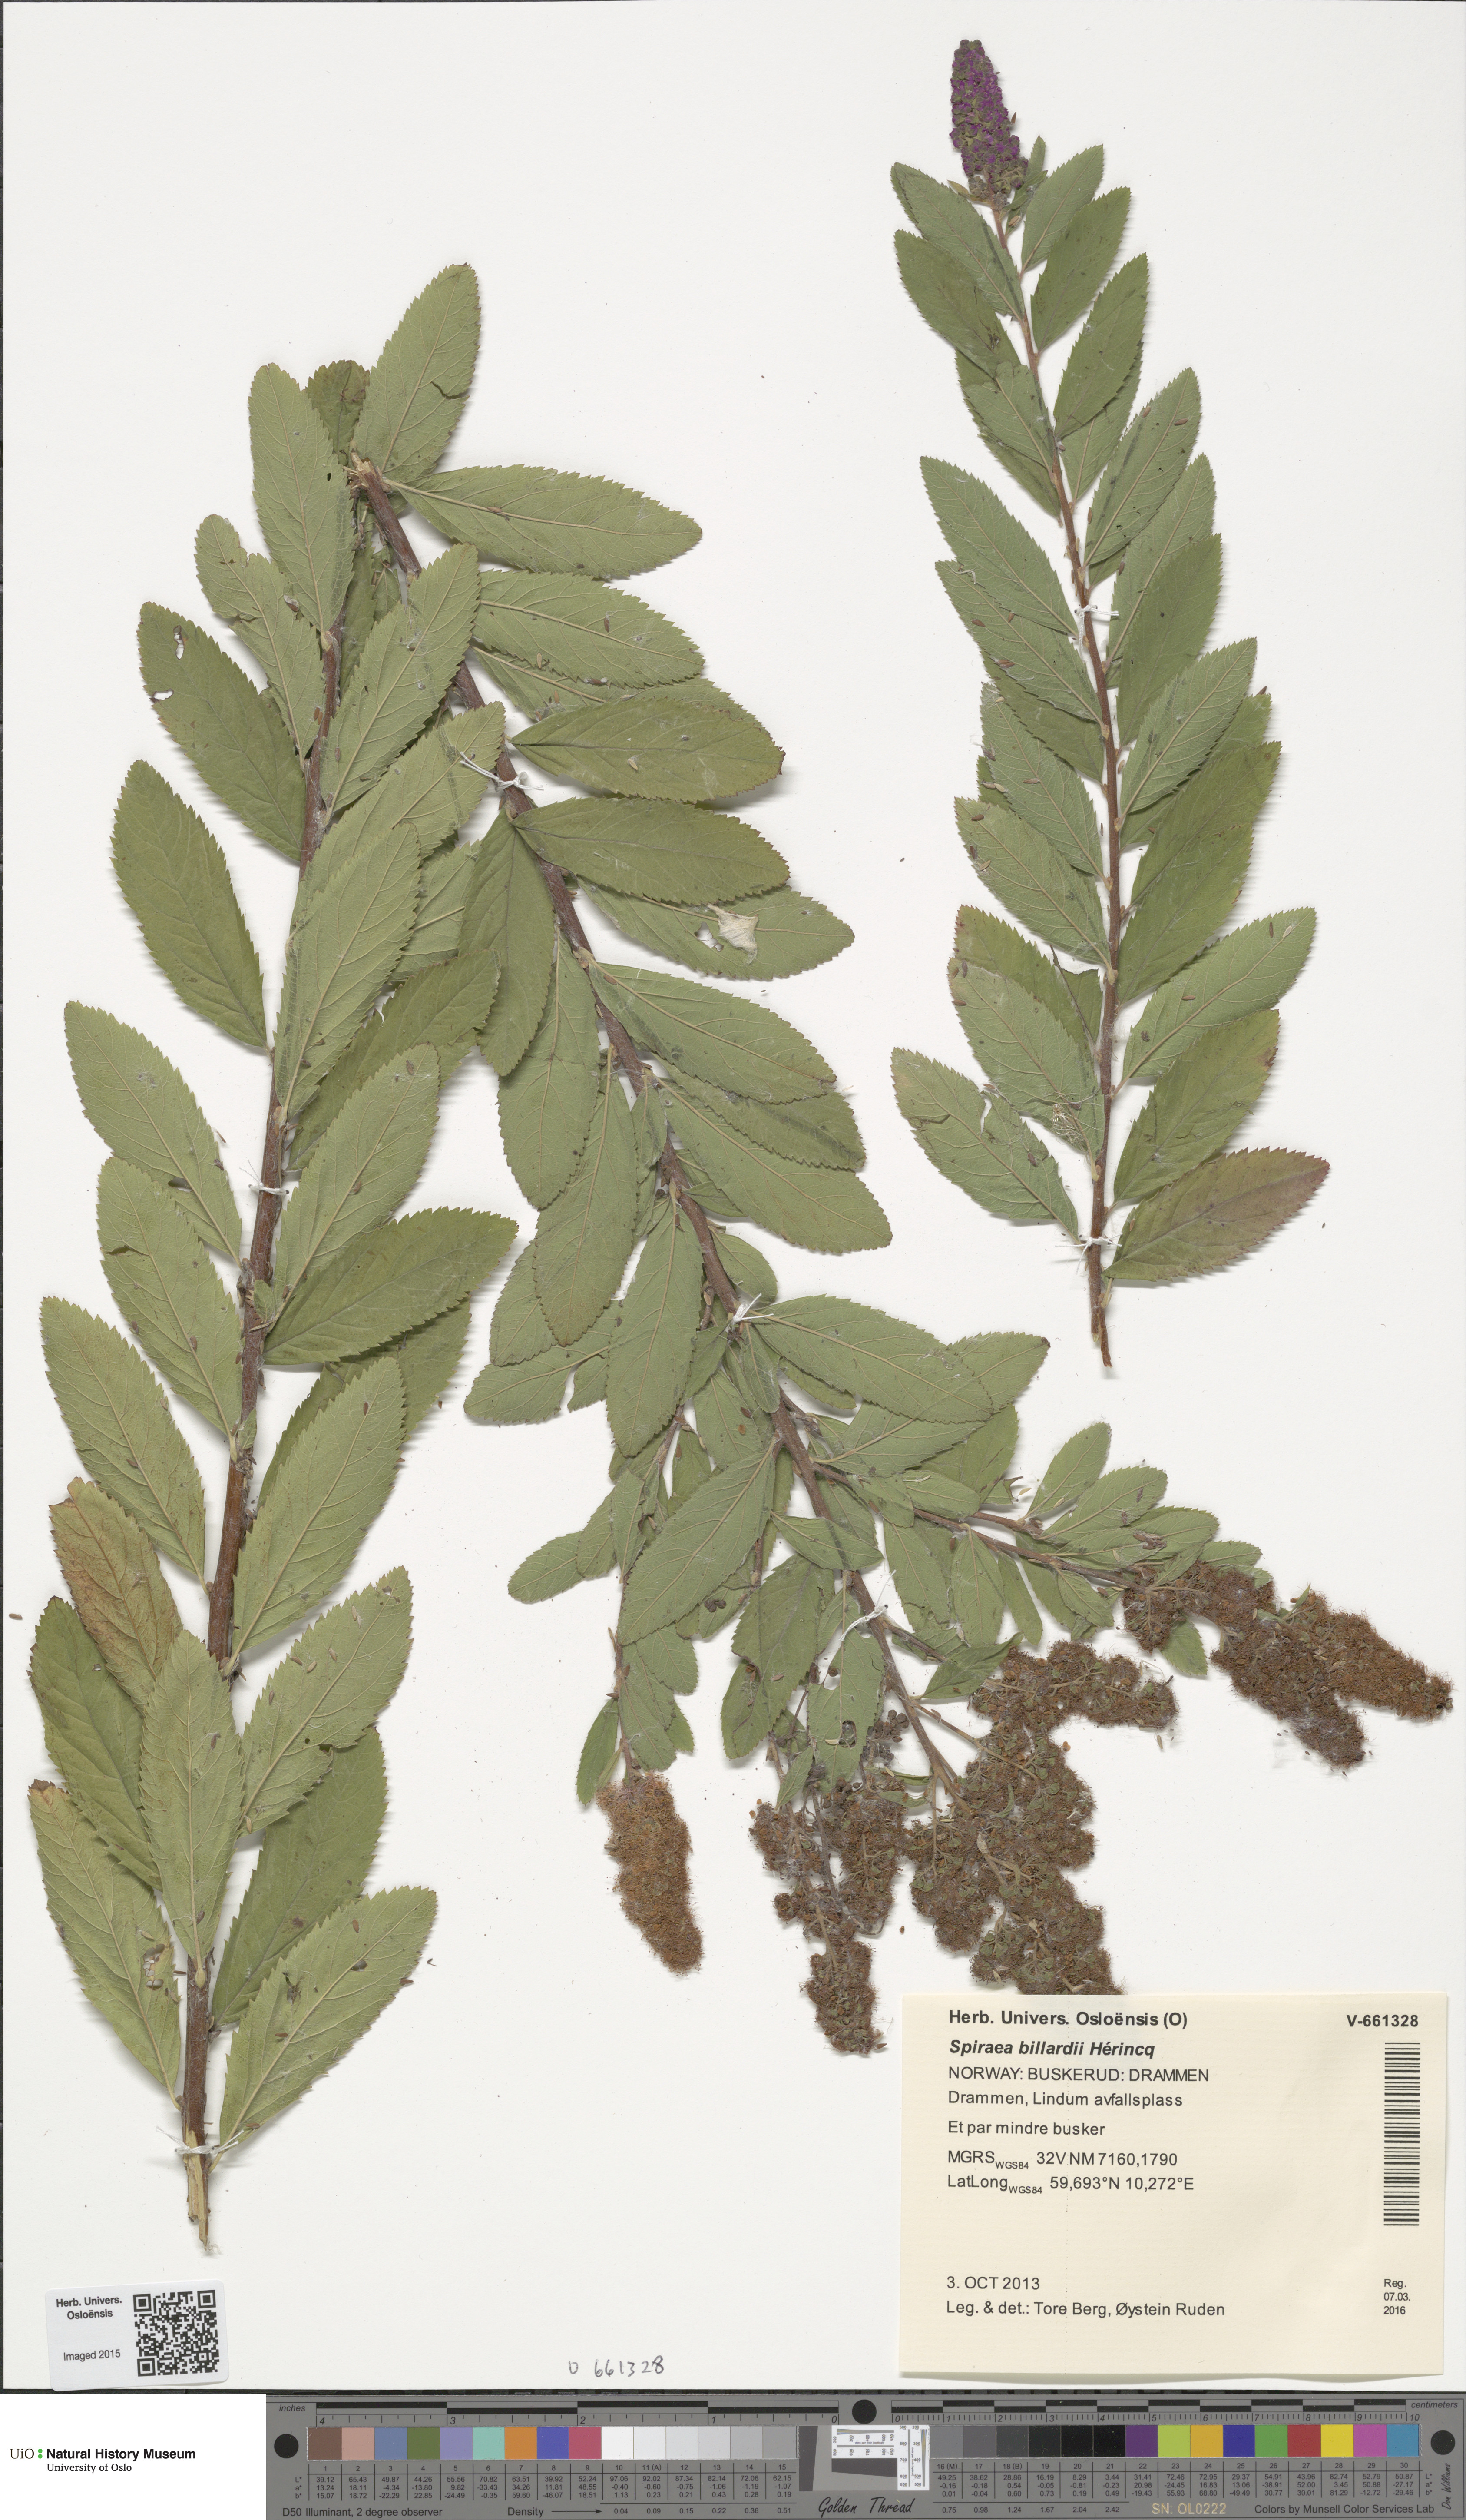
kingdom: Plantae
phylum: Tracheophyta
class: Magnoliopsida
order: Rosales
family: Rosaceae
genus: Spiraea
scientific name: Spiraea billardii
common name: Billard's bridewort
